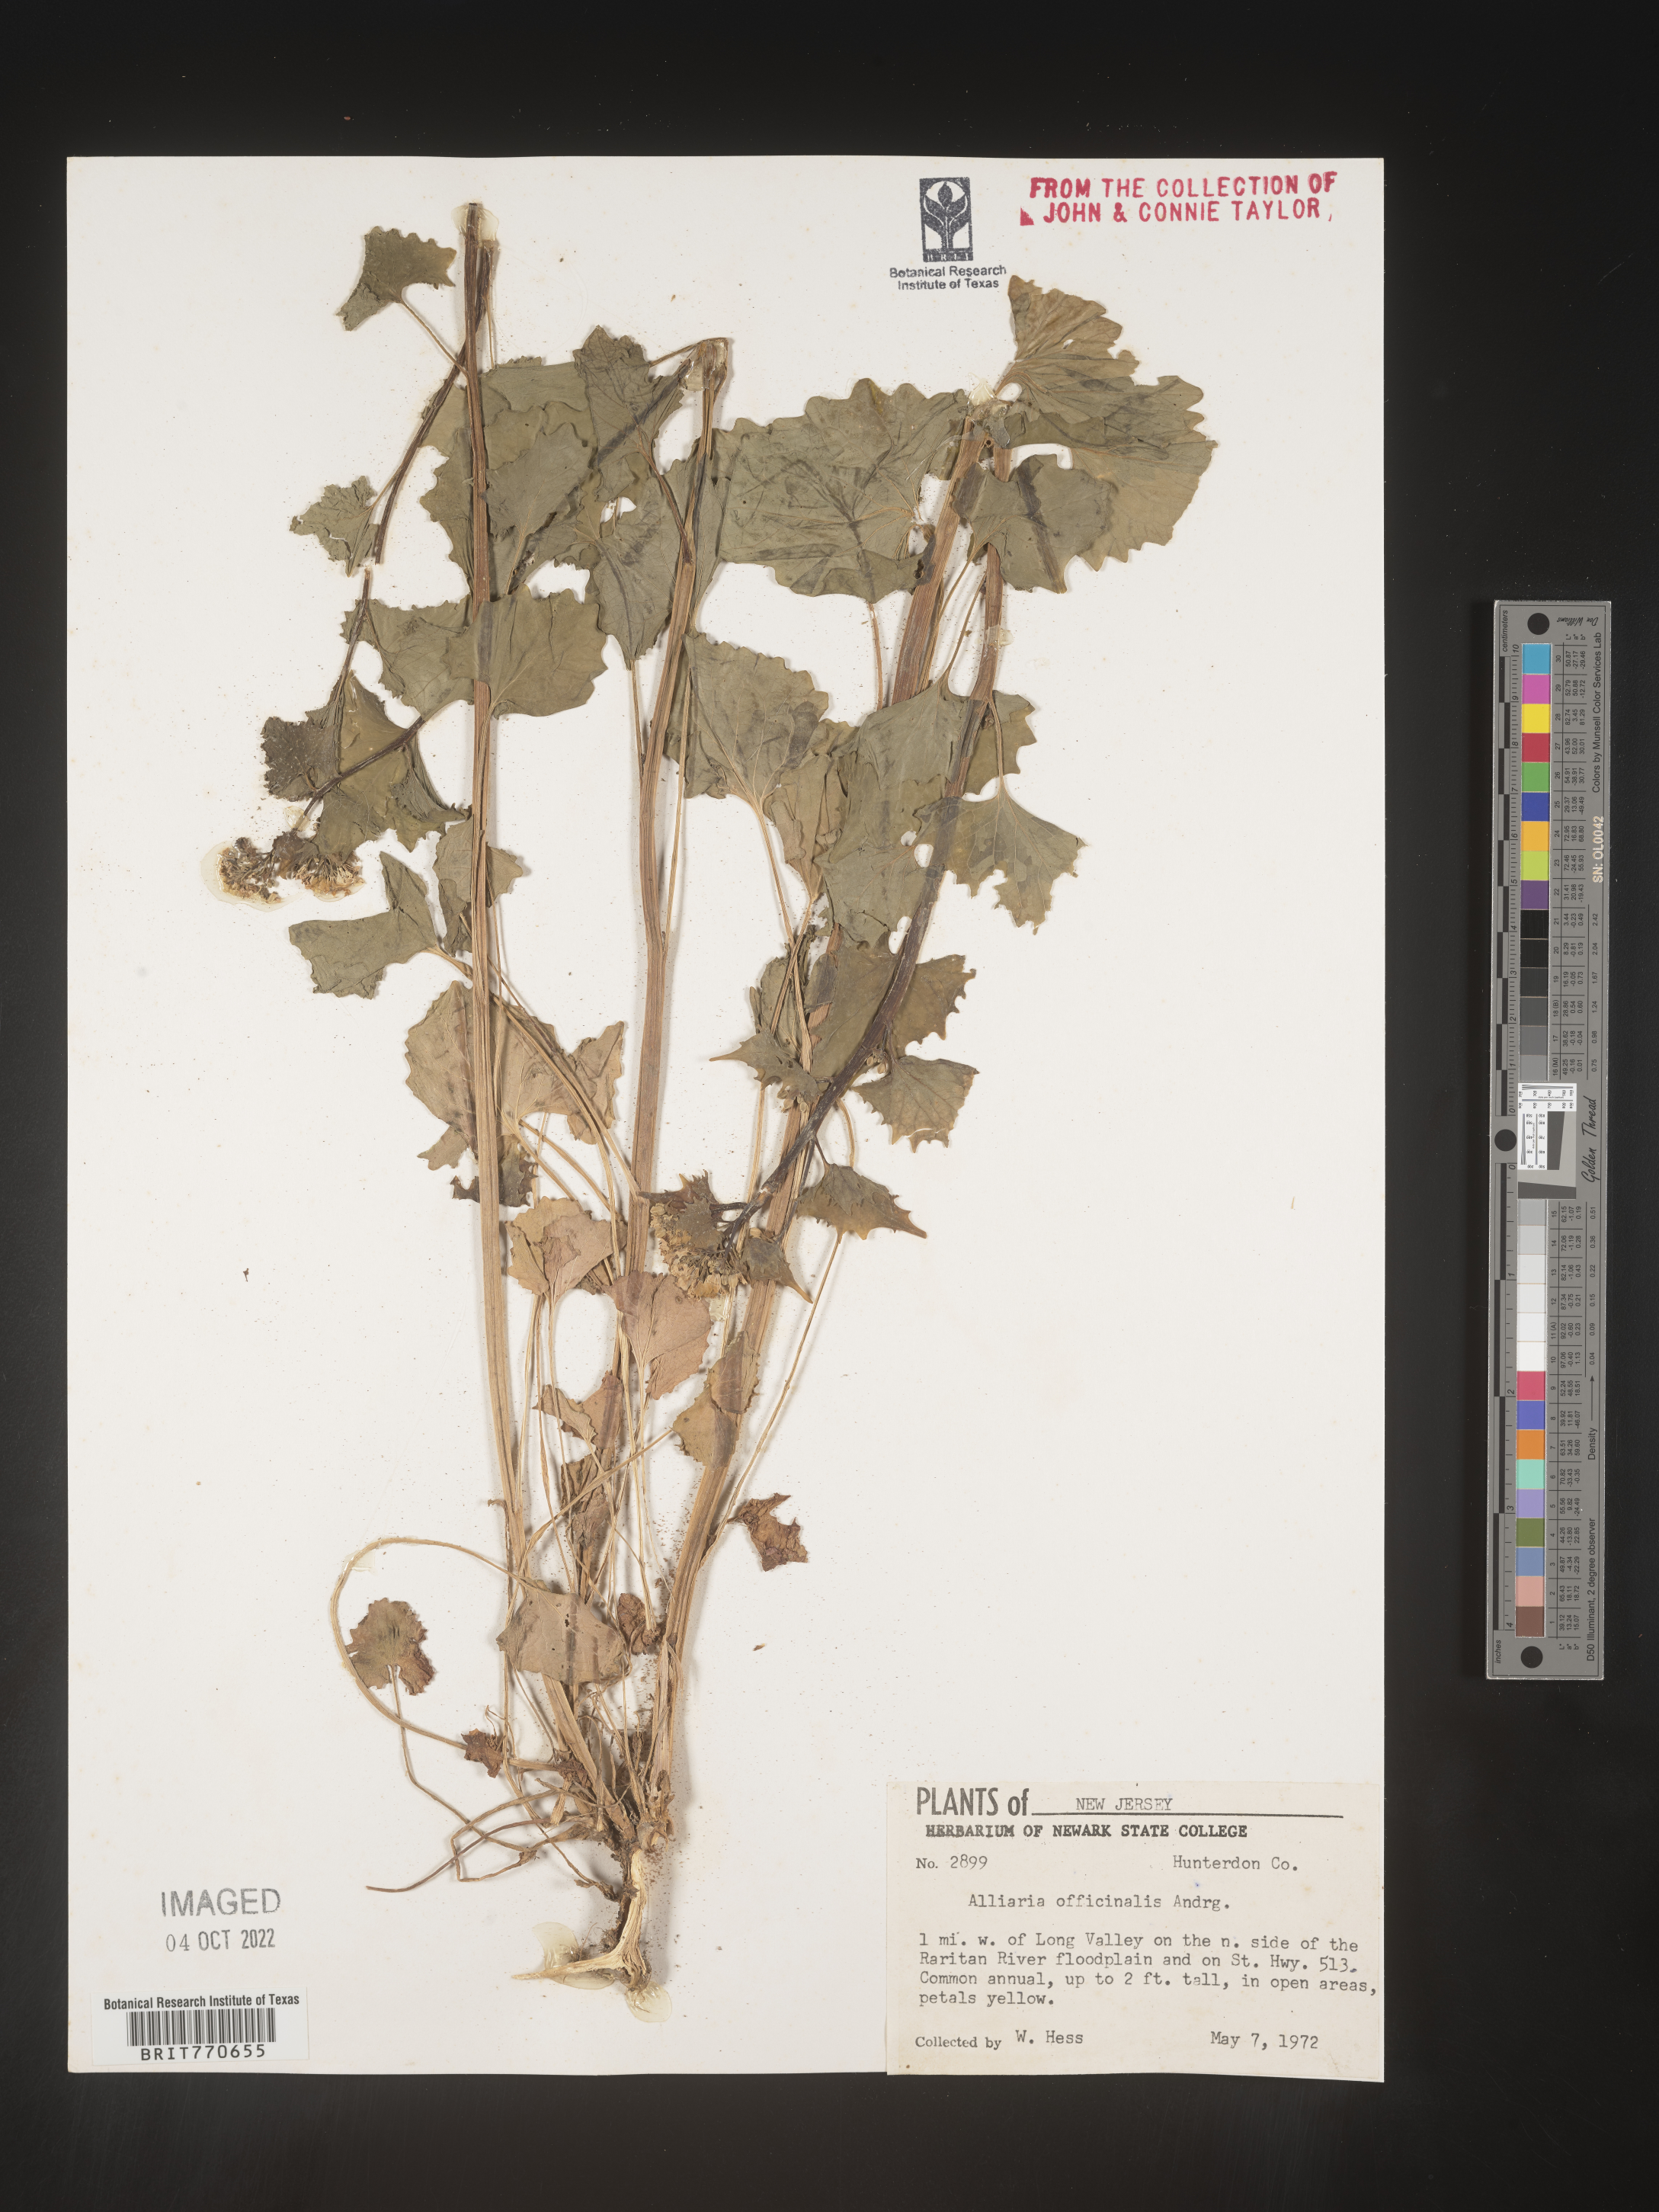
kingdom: Plantae
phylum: Tracheophyta
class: Magnoliopsida
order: Brassicales
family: Brassicaceae
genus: Alliaria
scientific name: Alliaria
